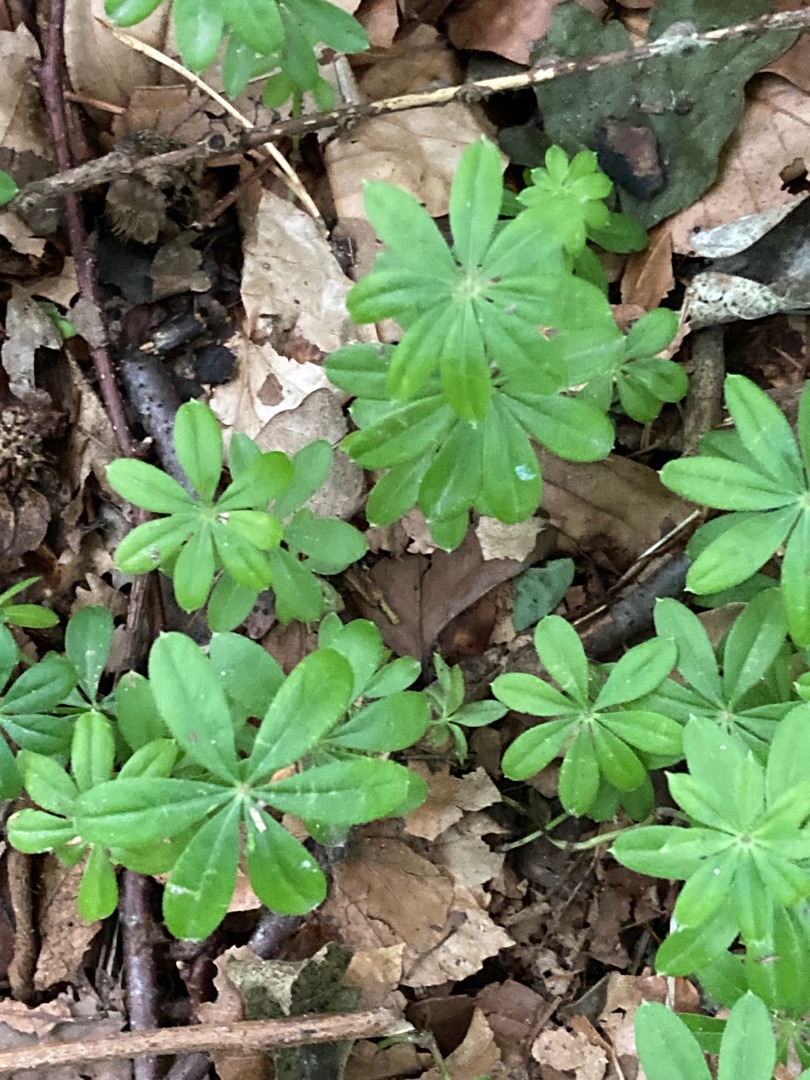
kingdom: Plantae
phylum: Tracheophyta
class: Magnoliopsida
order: Gentianales
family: Rubiaceae
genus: Galium
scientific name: Galium odoratum
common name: Skovmærke
